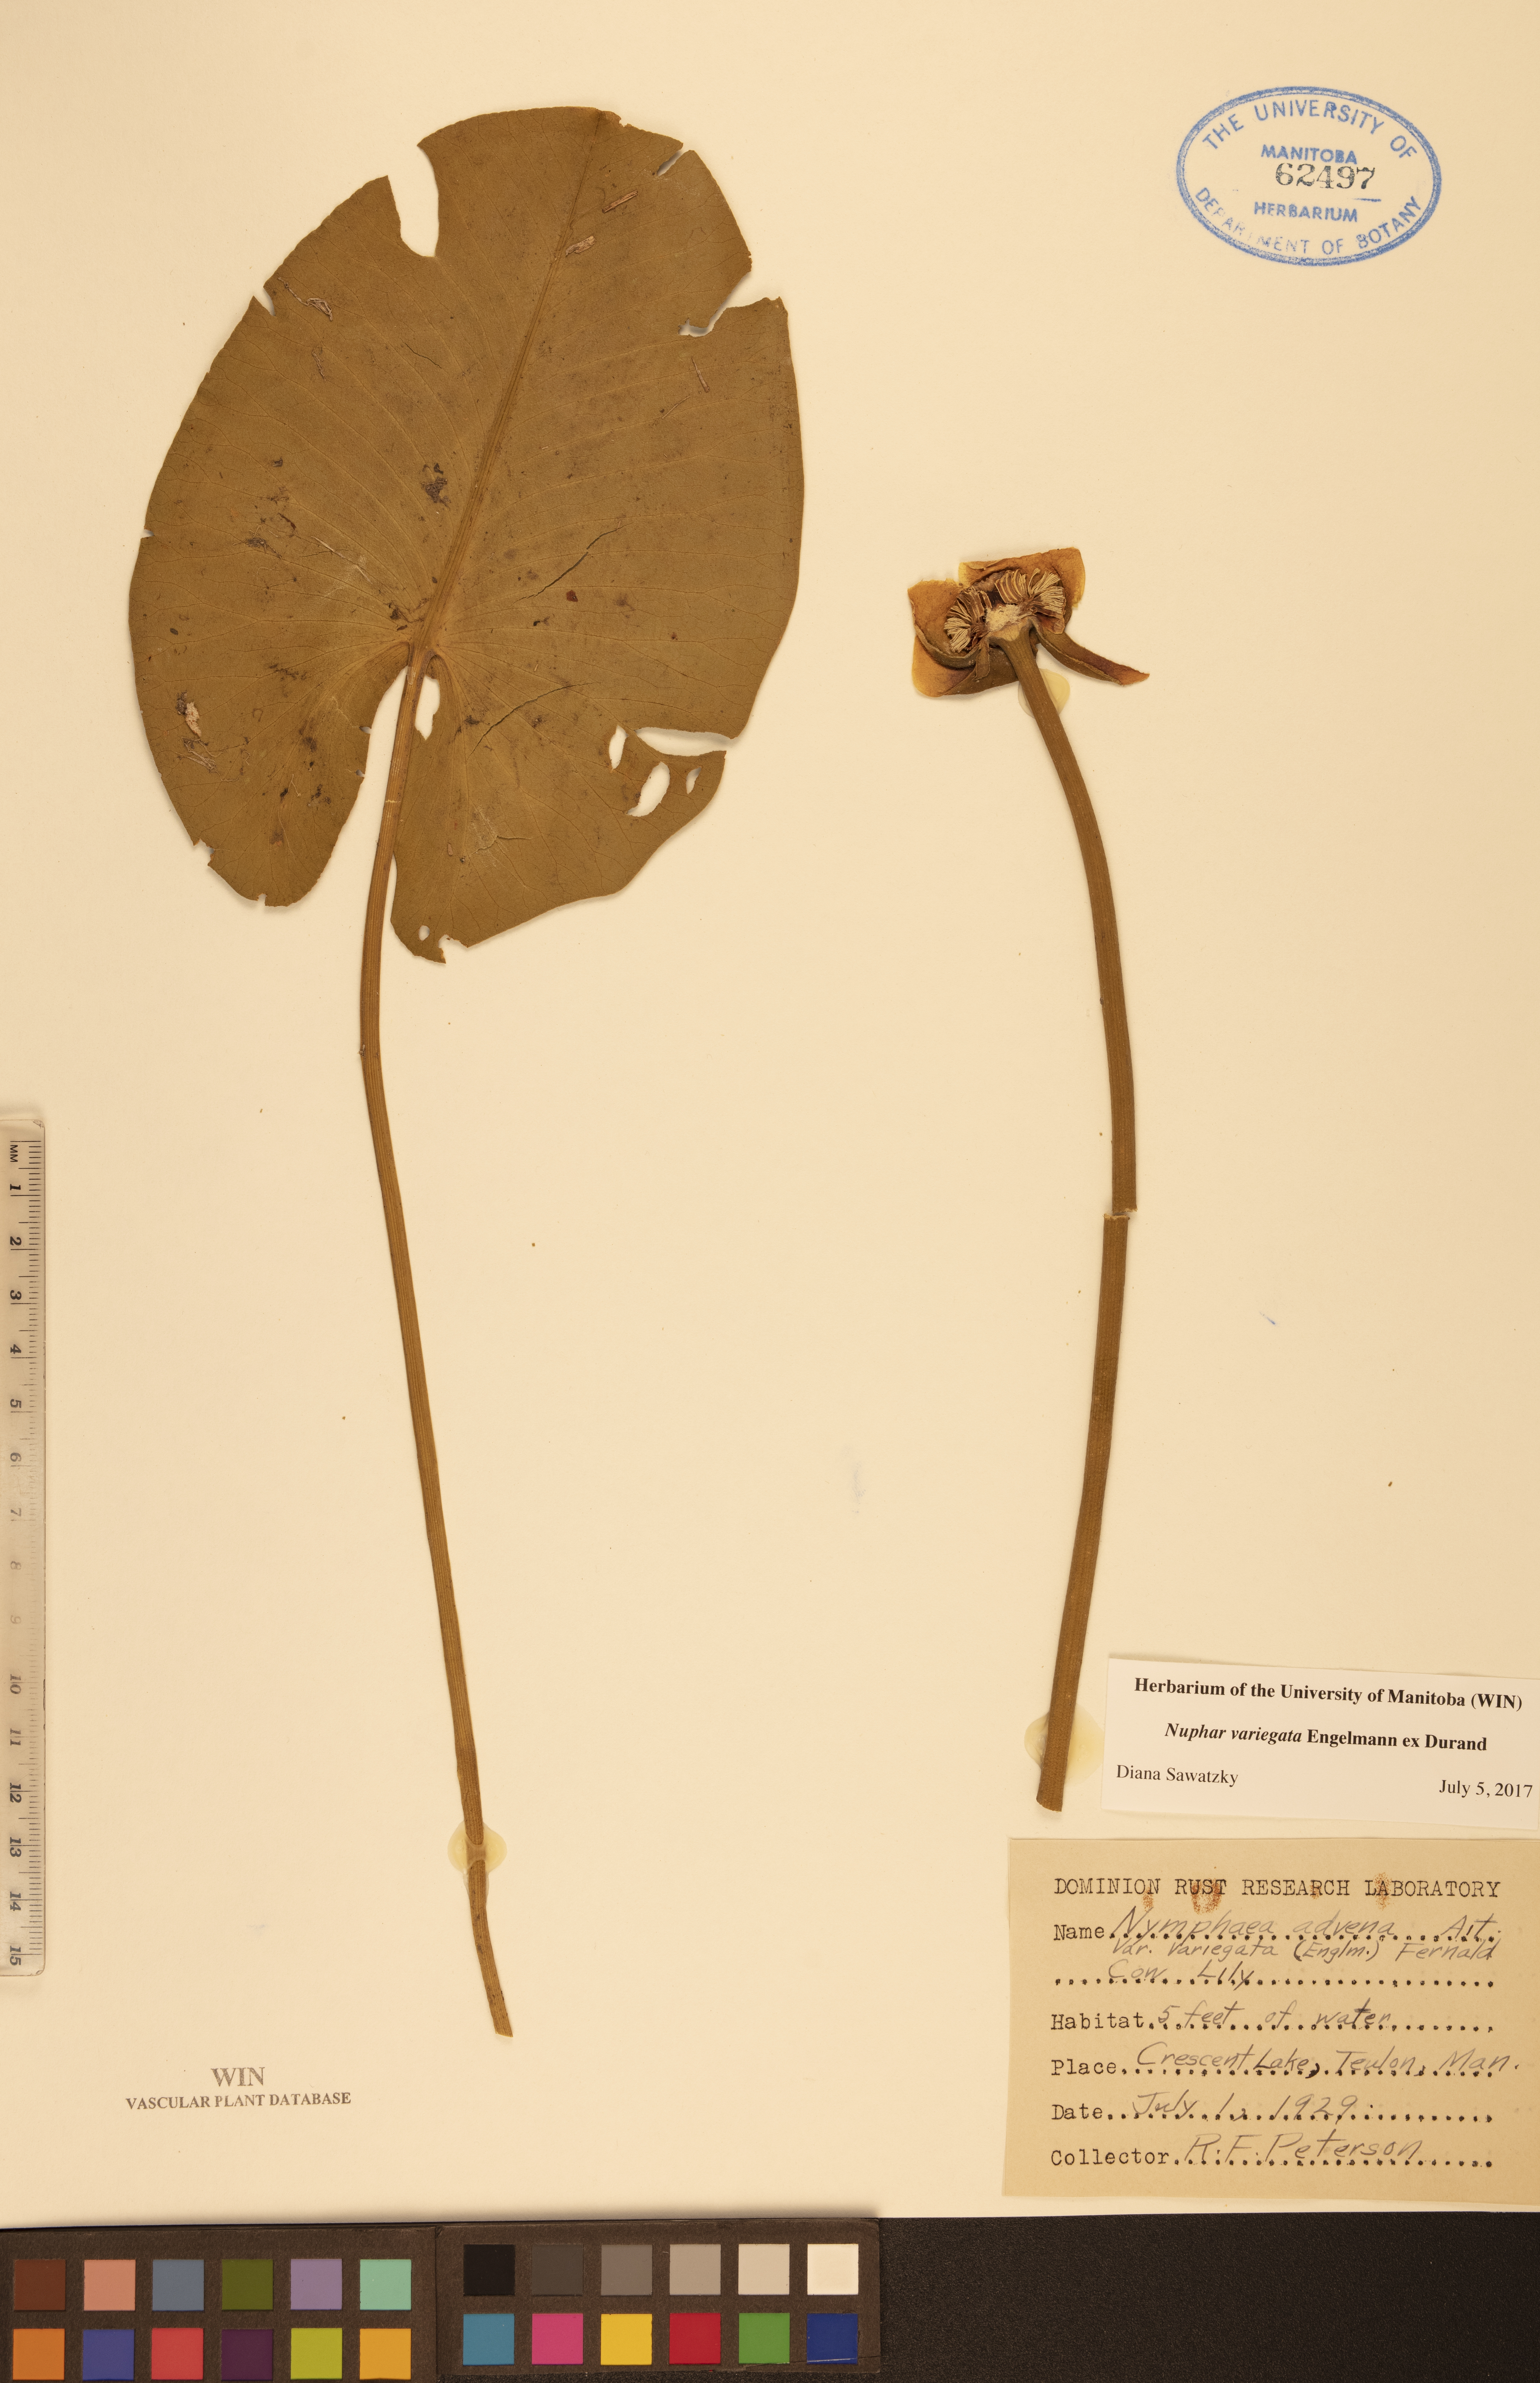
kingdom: Plantae
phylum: Tracheophyta
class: Magnoliopsida
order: Nymphaeales
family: Nymphaeaceae
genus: Nuphar
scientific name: Nuphar variegata
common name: Beaver-root
